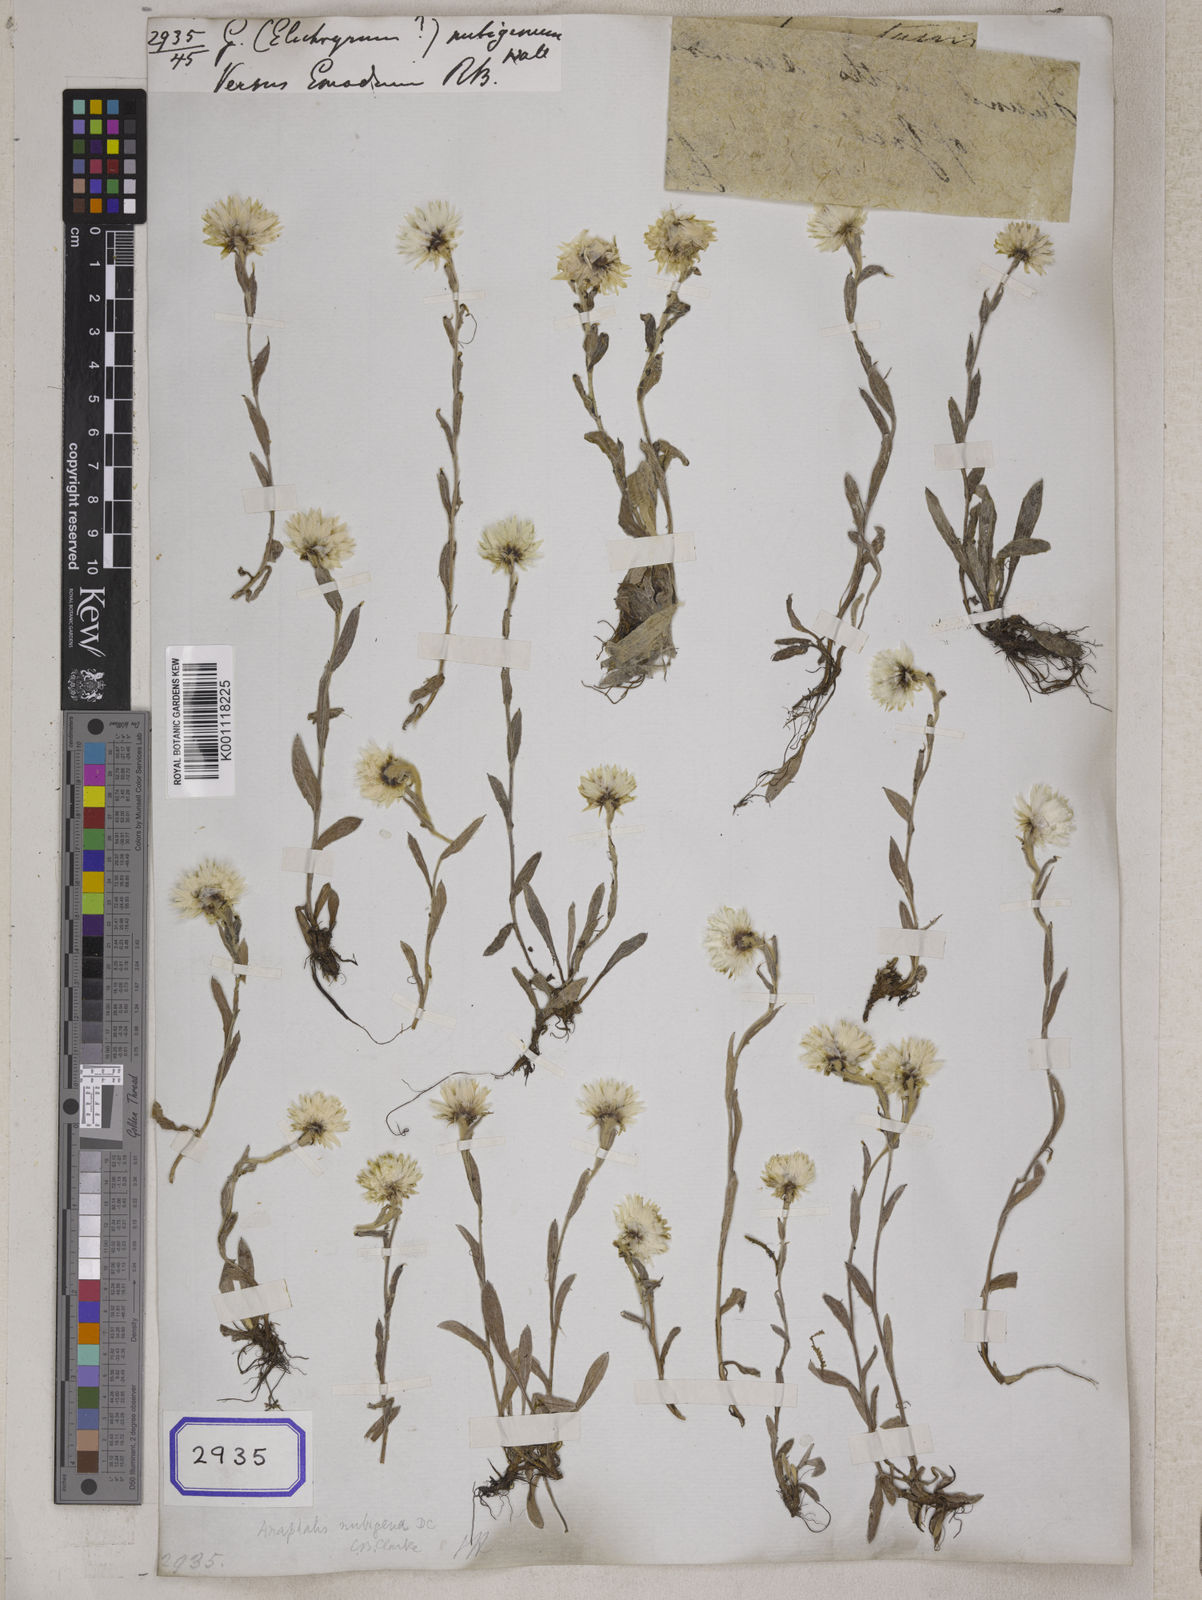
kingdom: Plantae
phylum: Tracheophyta
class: Magnoliopsida
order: Asterales
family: Asteraceae
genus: Anaphalis
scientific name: Anaphalis nepalensis
